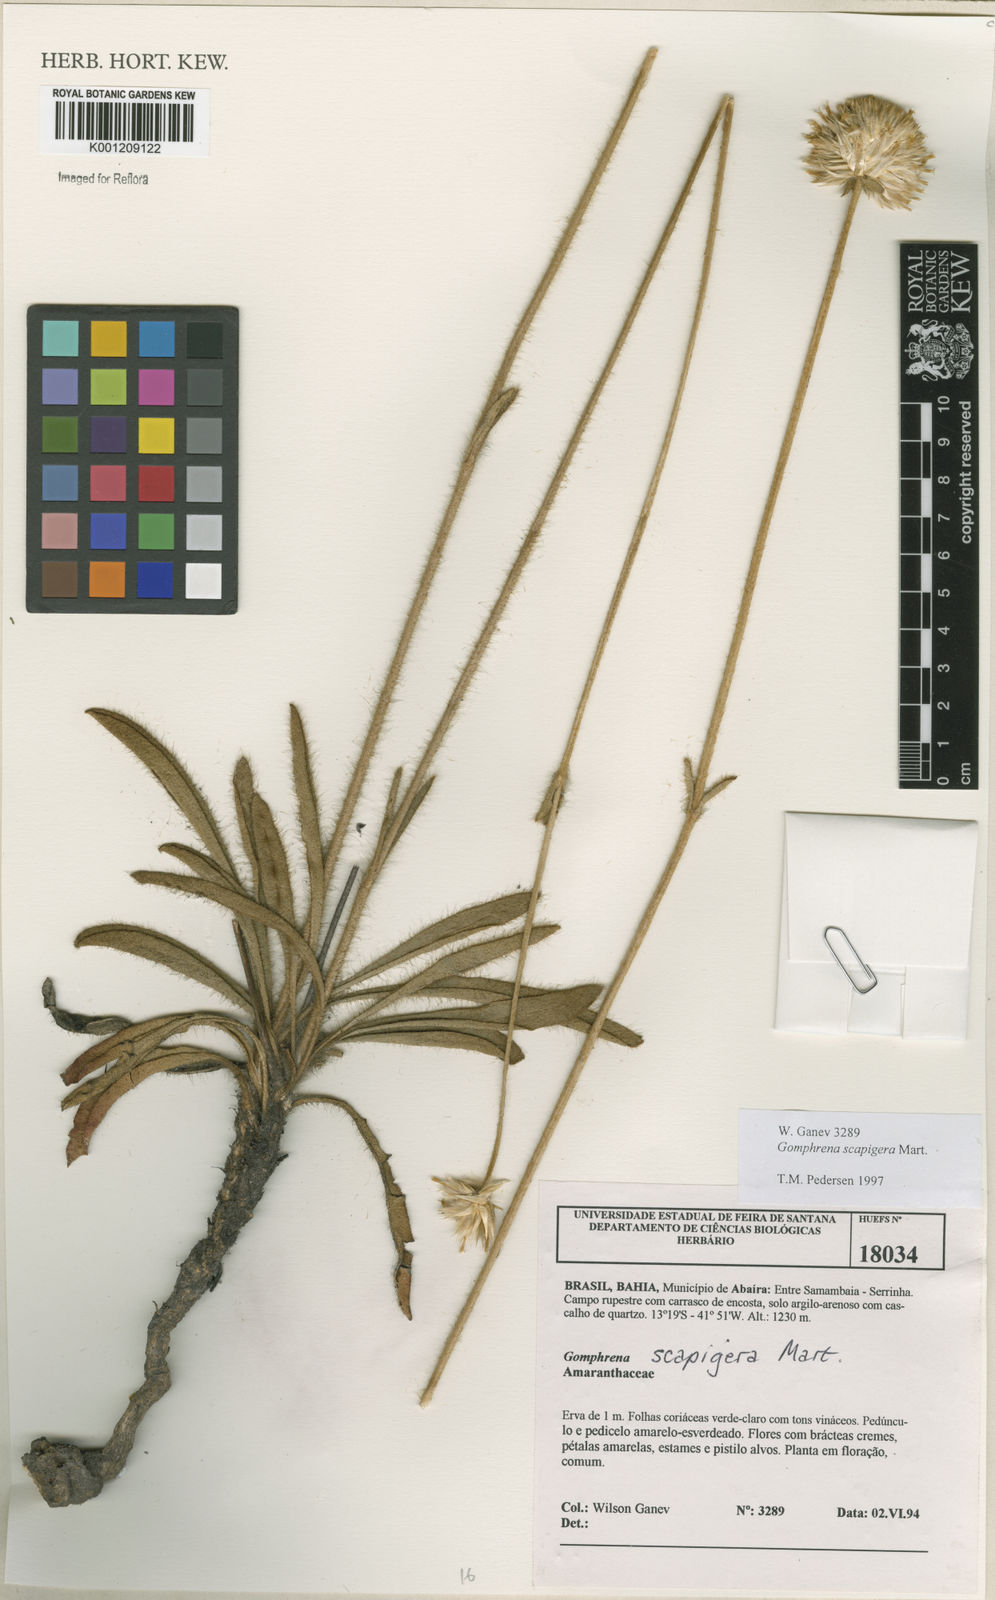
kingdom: Plantae
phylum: Tracheophyta
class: Magnoliopsida
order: Caryophyllales
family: Amaranthaceae
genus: Gomphrena
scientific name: Gomphrena scapigera
